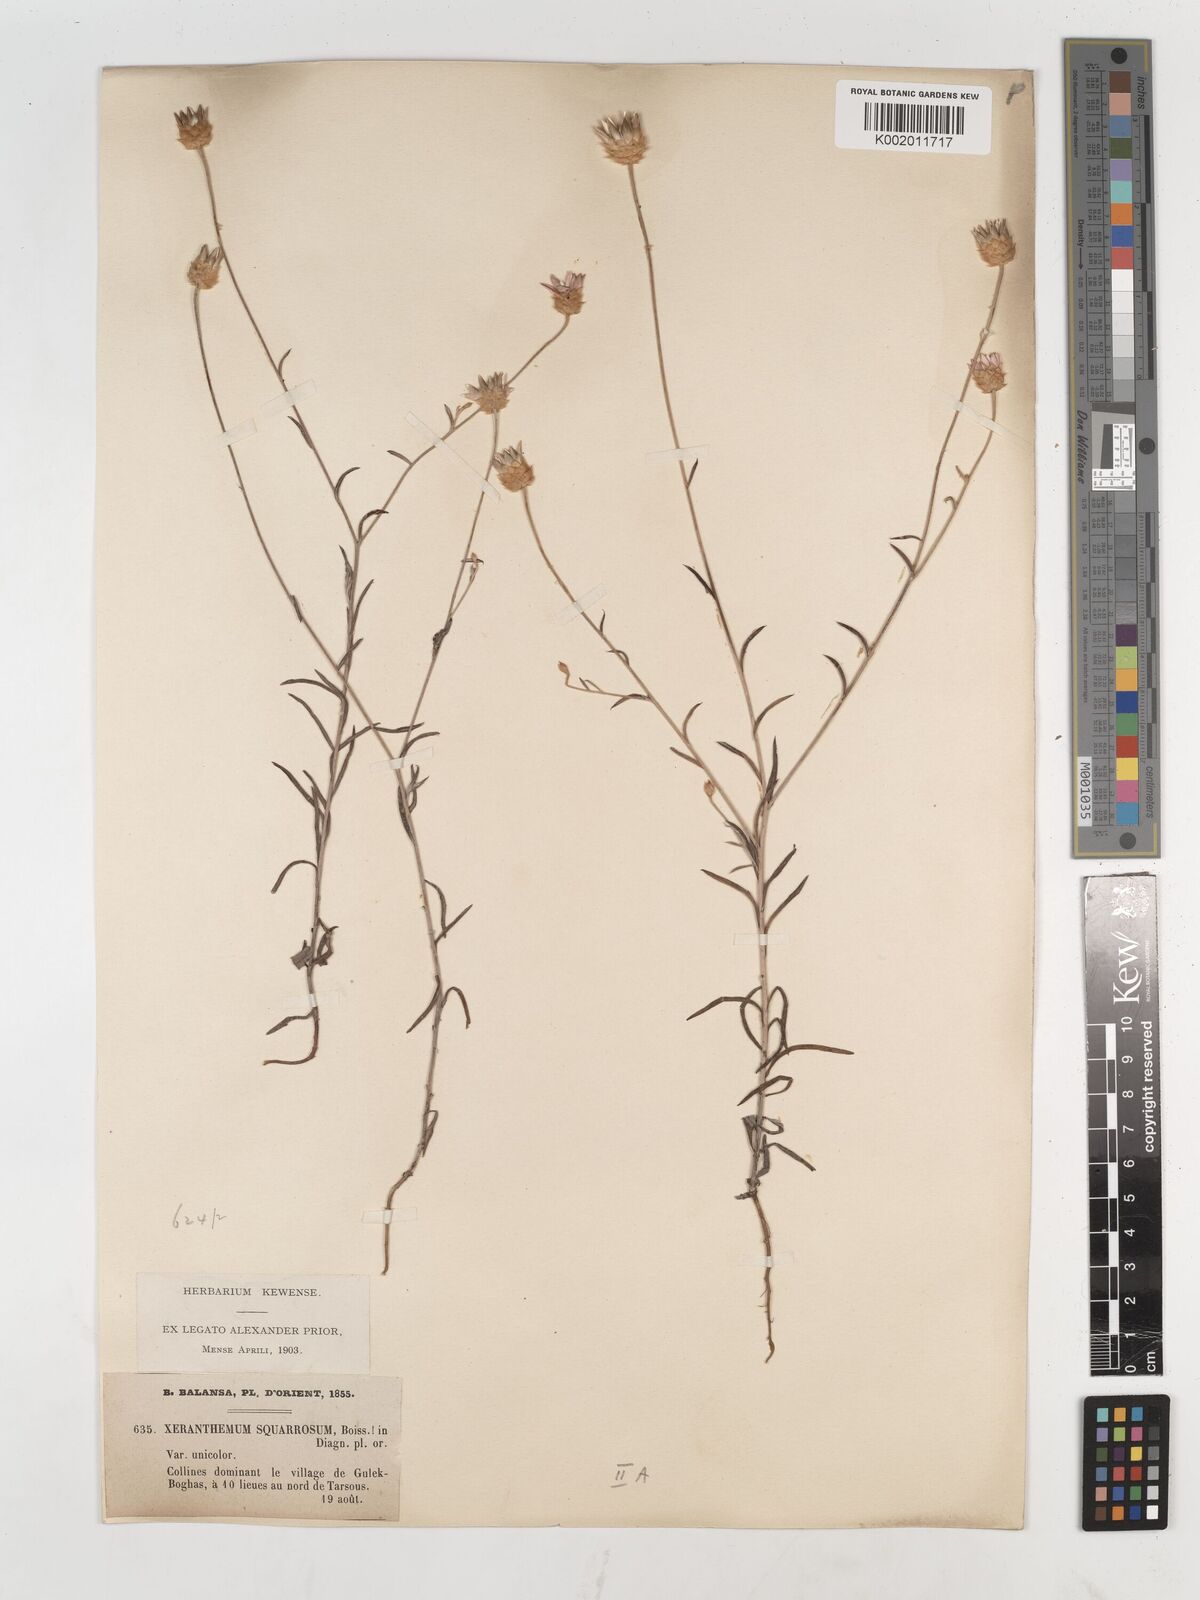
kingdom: Plantae
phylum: Tracheophyta
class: Magnoliopsida
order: Asterales
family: Asteraceae
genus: Xeranthemum
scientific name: Xeranthemum squarrosum
